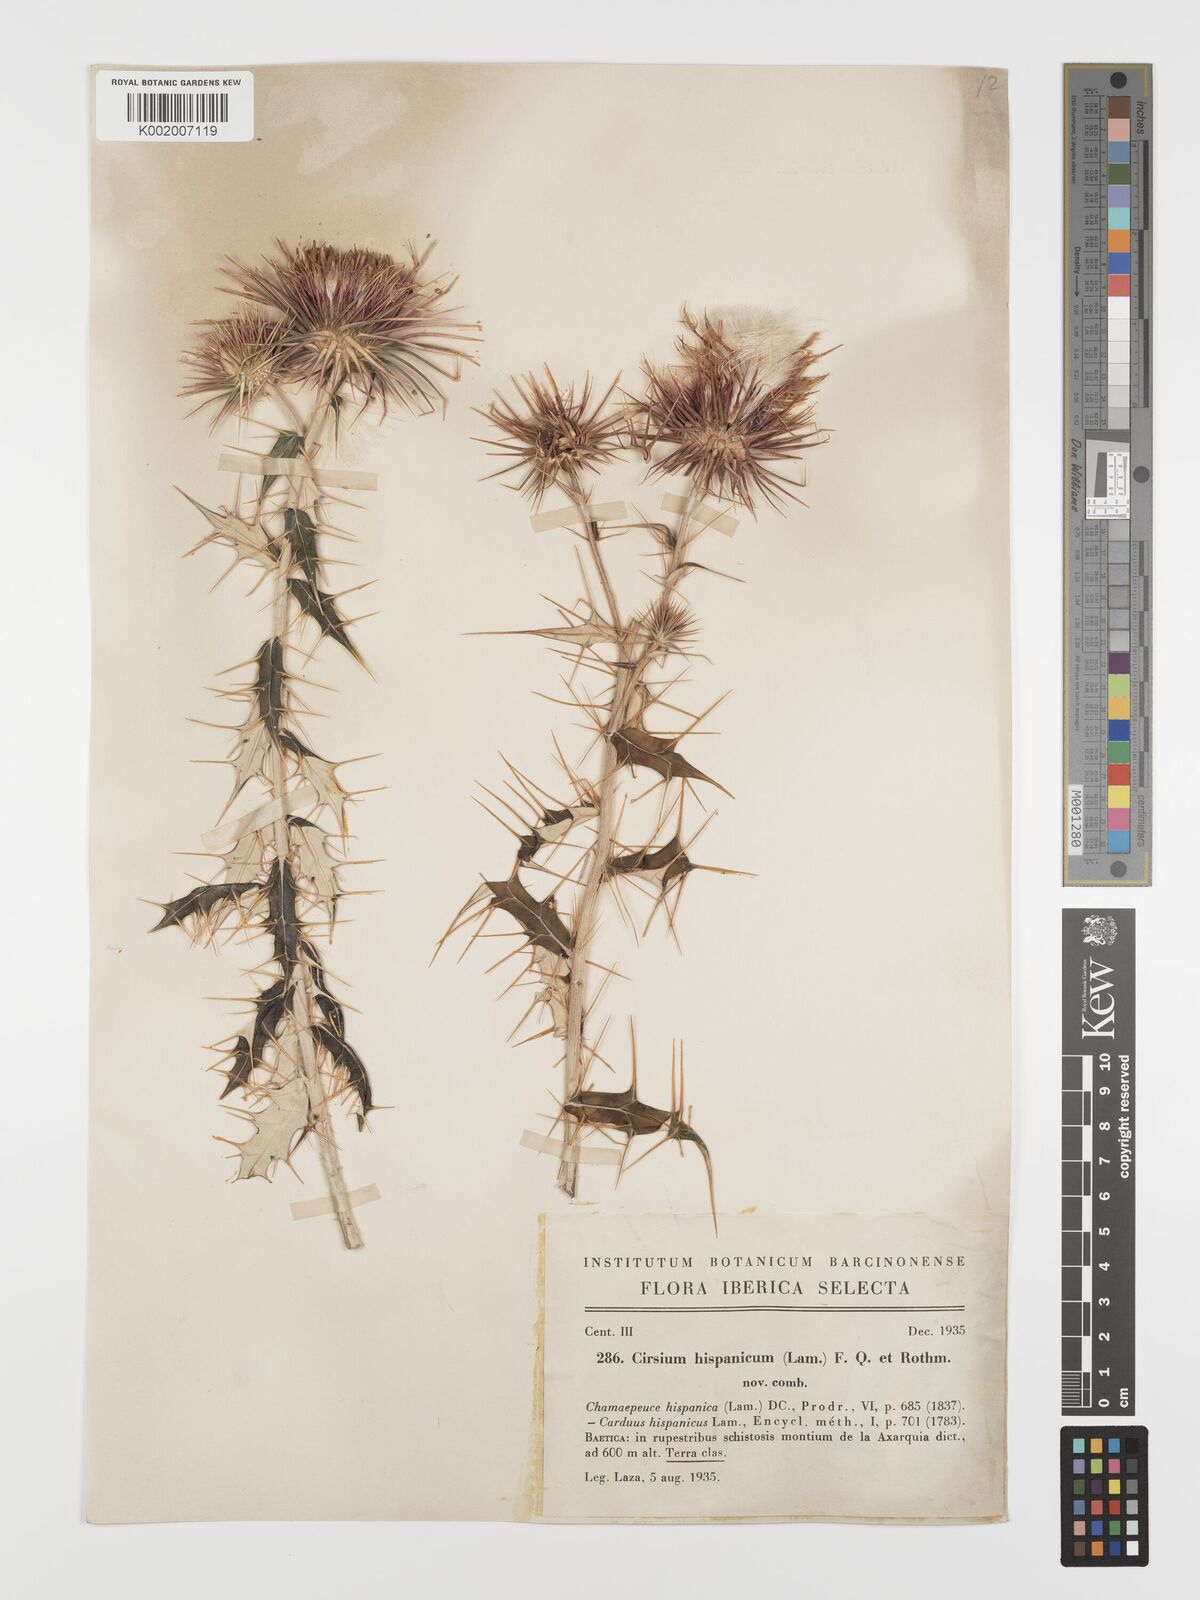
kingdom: Plantae
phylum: Tracheophyta
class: Magnoliopsida
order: Asterales
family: Asteraceae
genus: Ptilostemon
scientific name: Ptilostemon hispanicus
